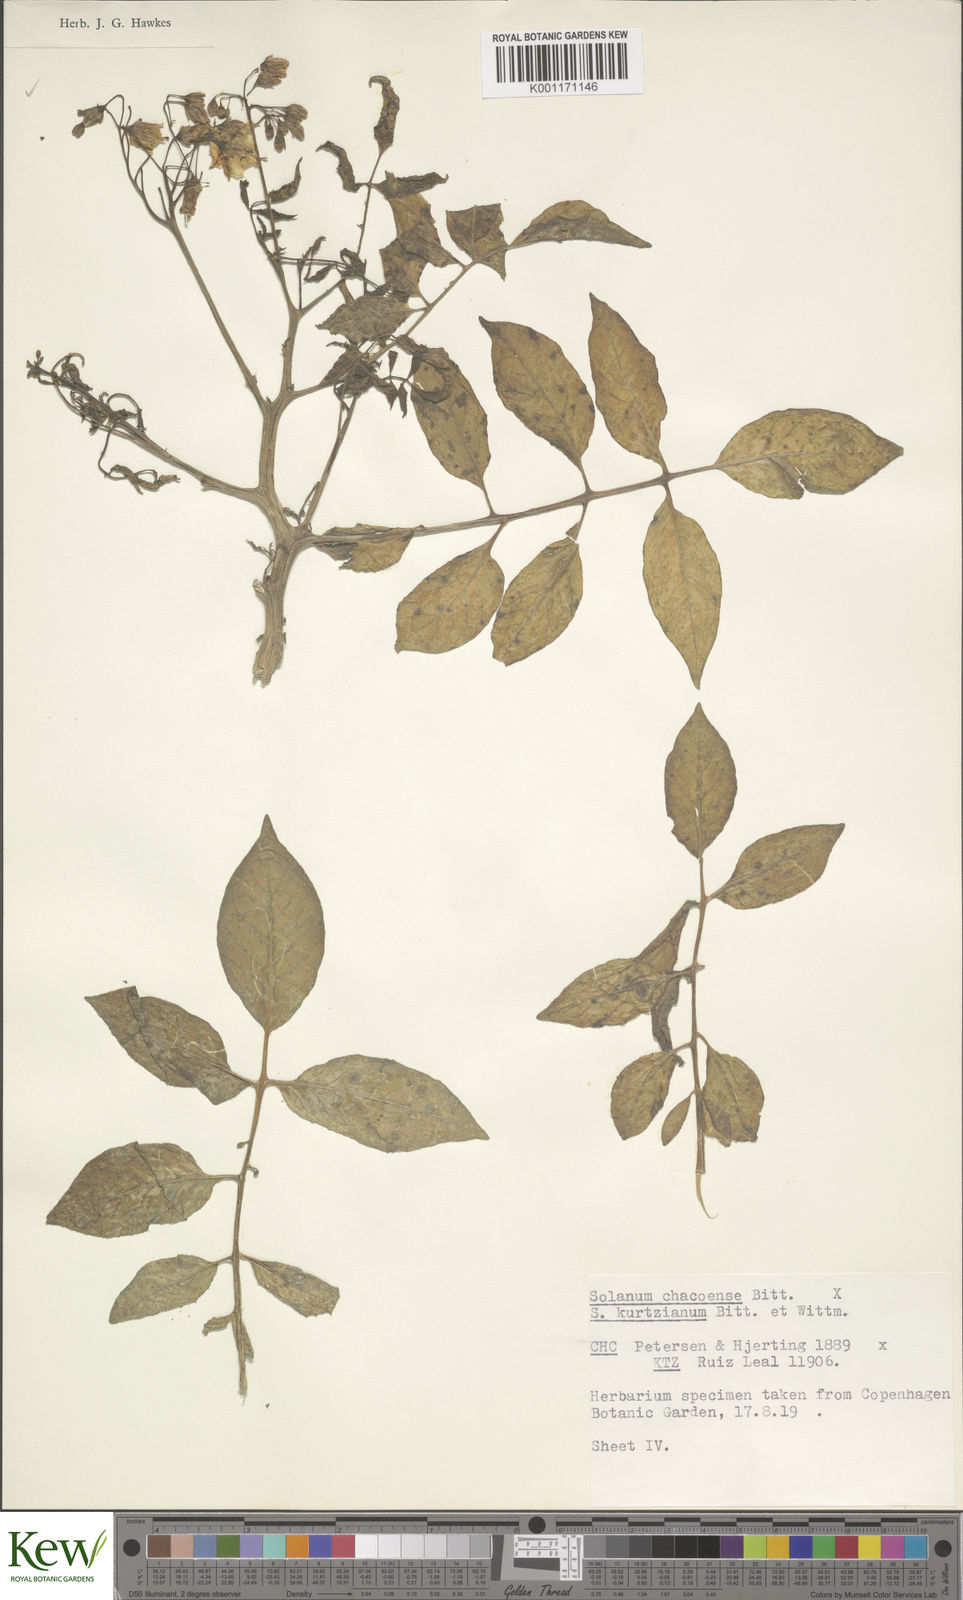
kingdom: Plantae
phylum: Tracheophyta
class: Magnoliopsida
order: Solanales
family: Solanaceae
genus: Solanum
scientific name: Solanum chacoense
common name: Chaco potato
